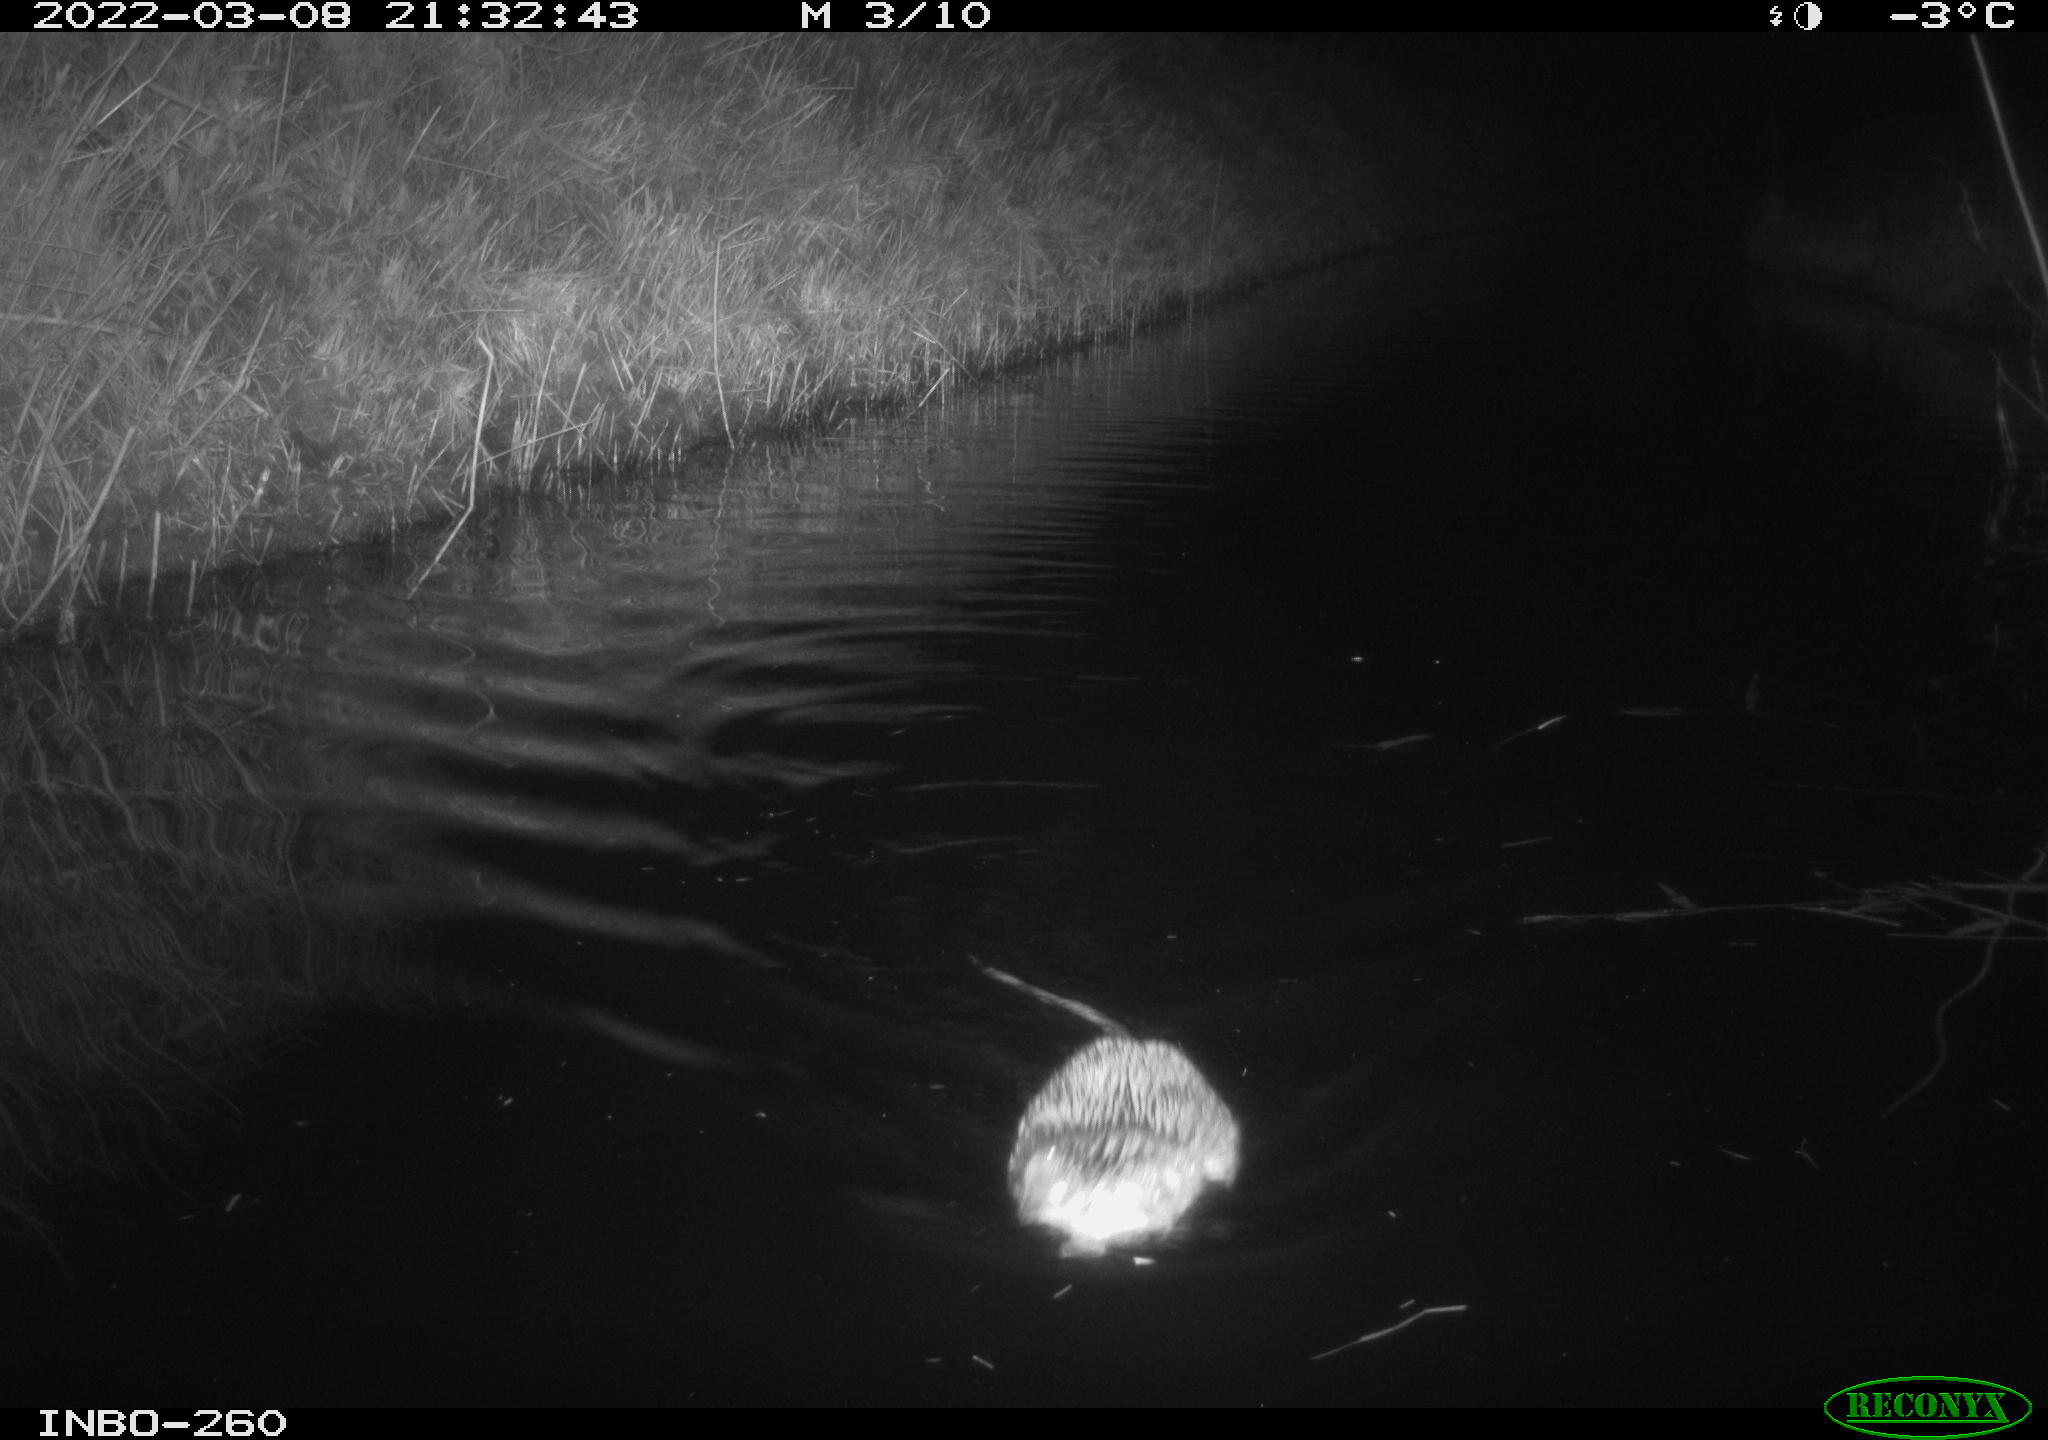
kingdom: Animalia
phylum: Chordata
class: Mammalia
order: Rodentia
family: Cricetidae
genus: Ondatra
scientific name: Ondatra zibethicus
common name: Muskrat
